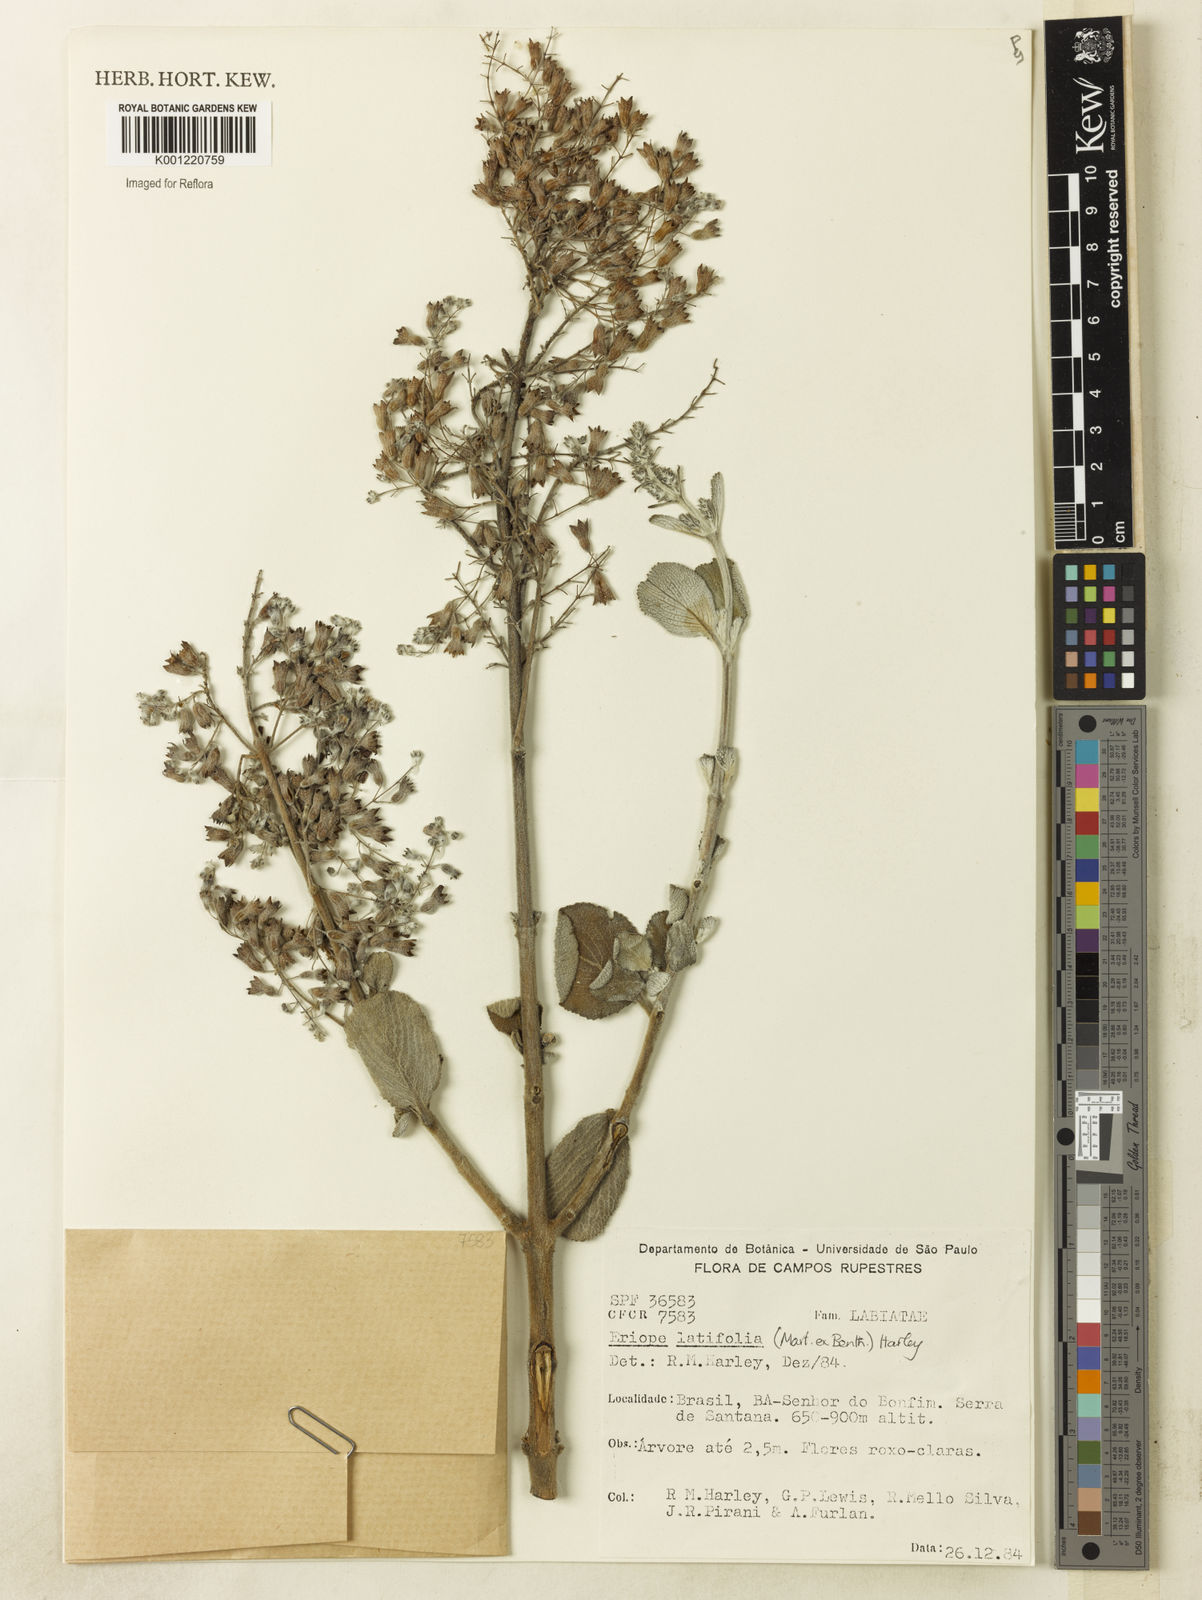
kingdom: Plantae
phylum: Tracheophyta
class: Magnoliopsida
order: Lamiales
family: Lamiaceae
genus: Eriope
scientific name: Eriope latifolia
